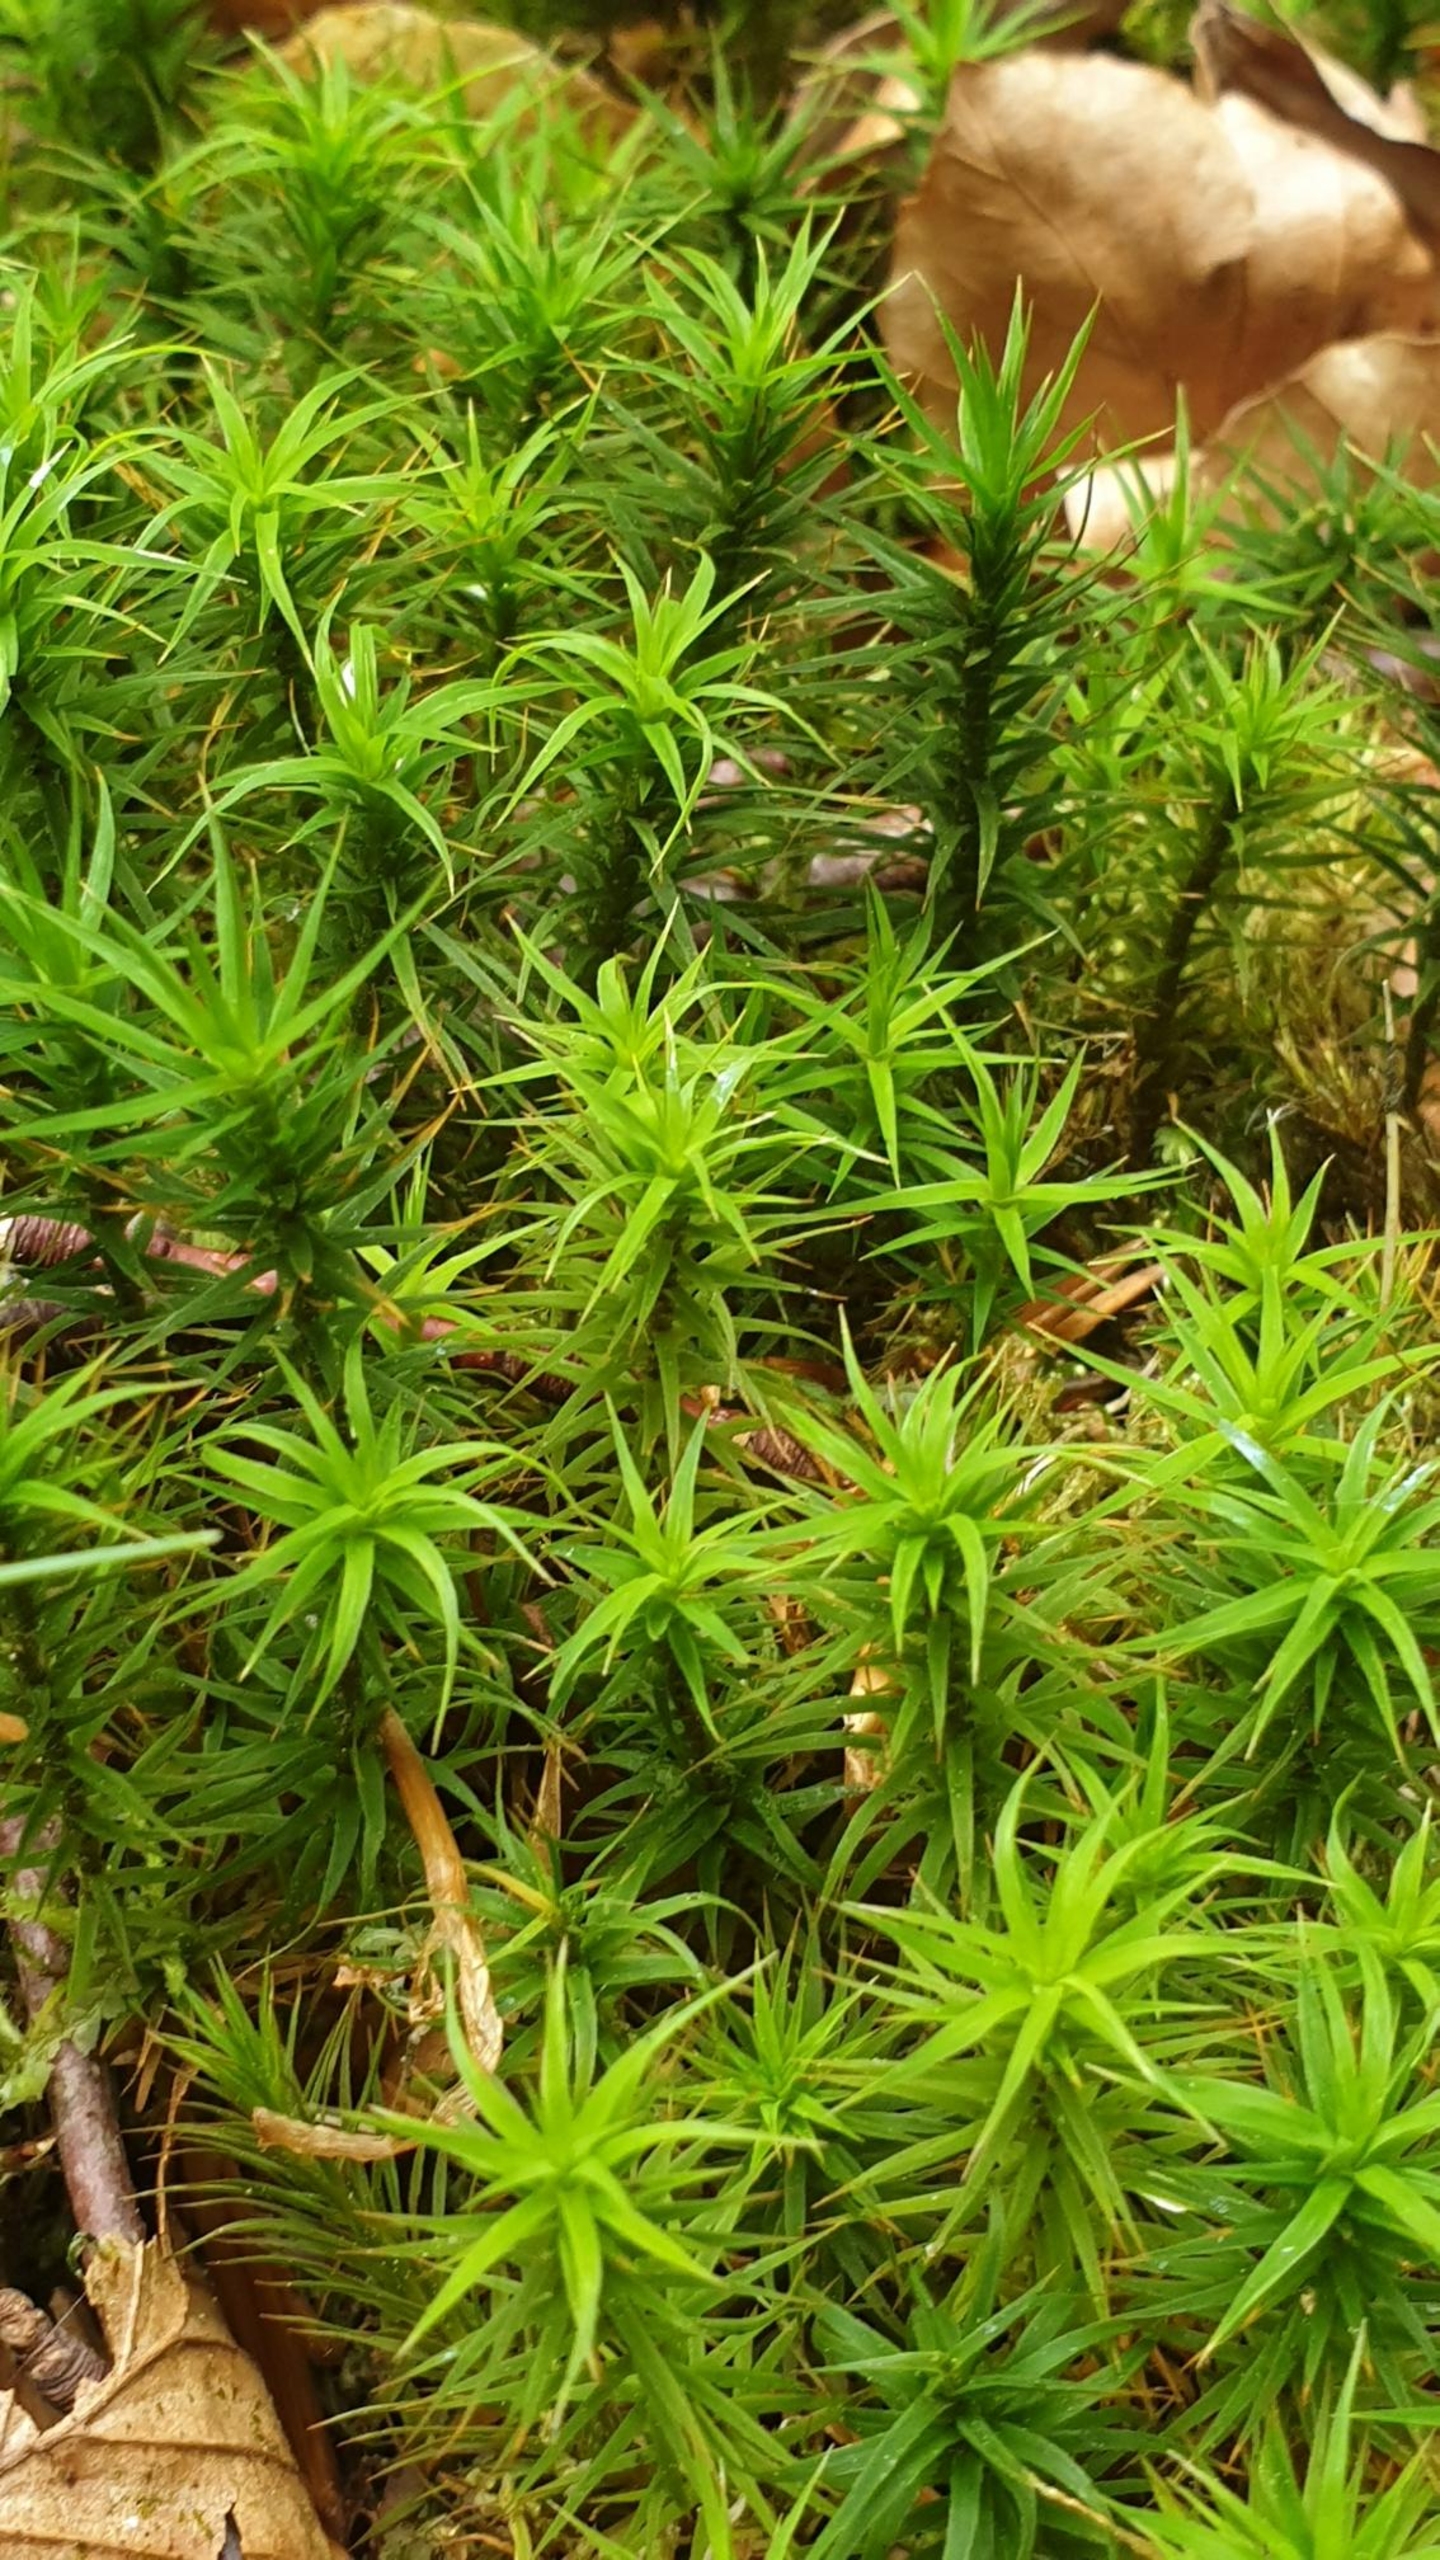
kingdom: Plantae
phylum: Bryophyta
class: Polytrichopsida
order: Polytrichales
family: Polytrichaceae
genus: Polytrichum
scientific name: Polytrichum formosum
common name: Skov-jomfruhår
